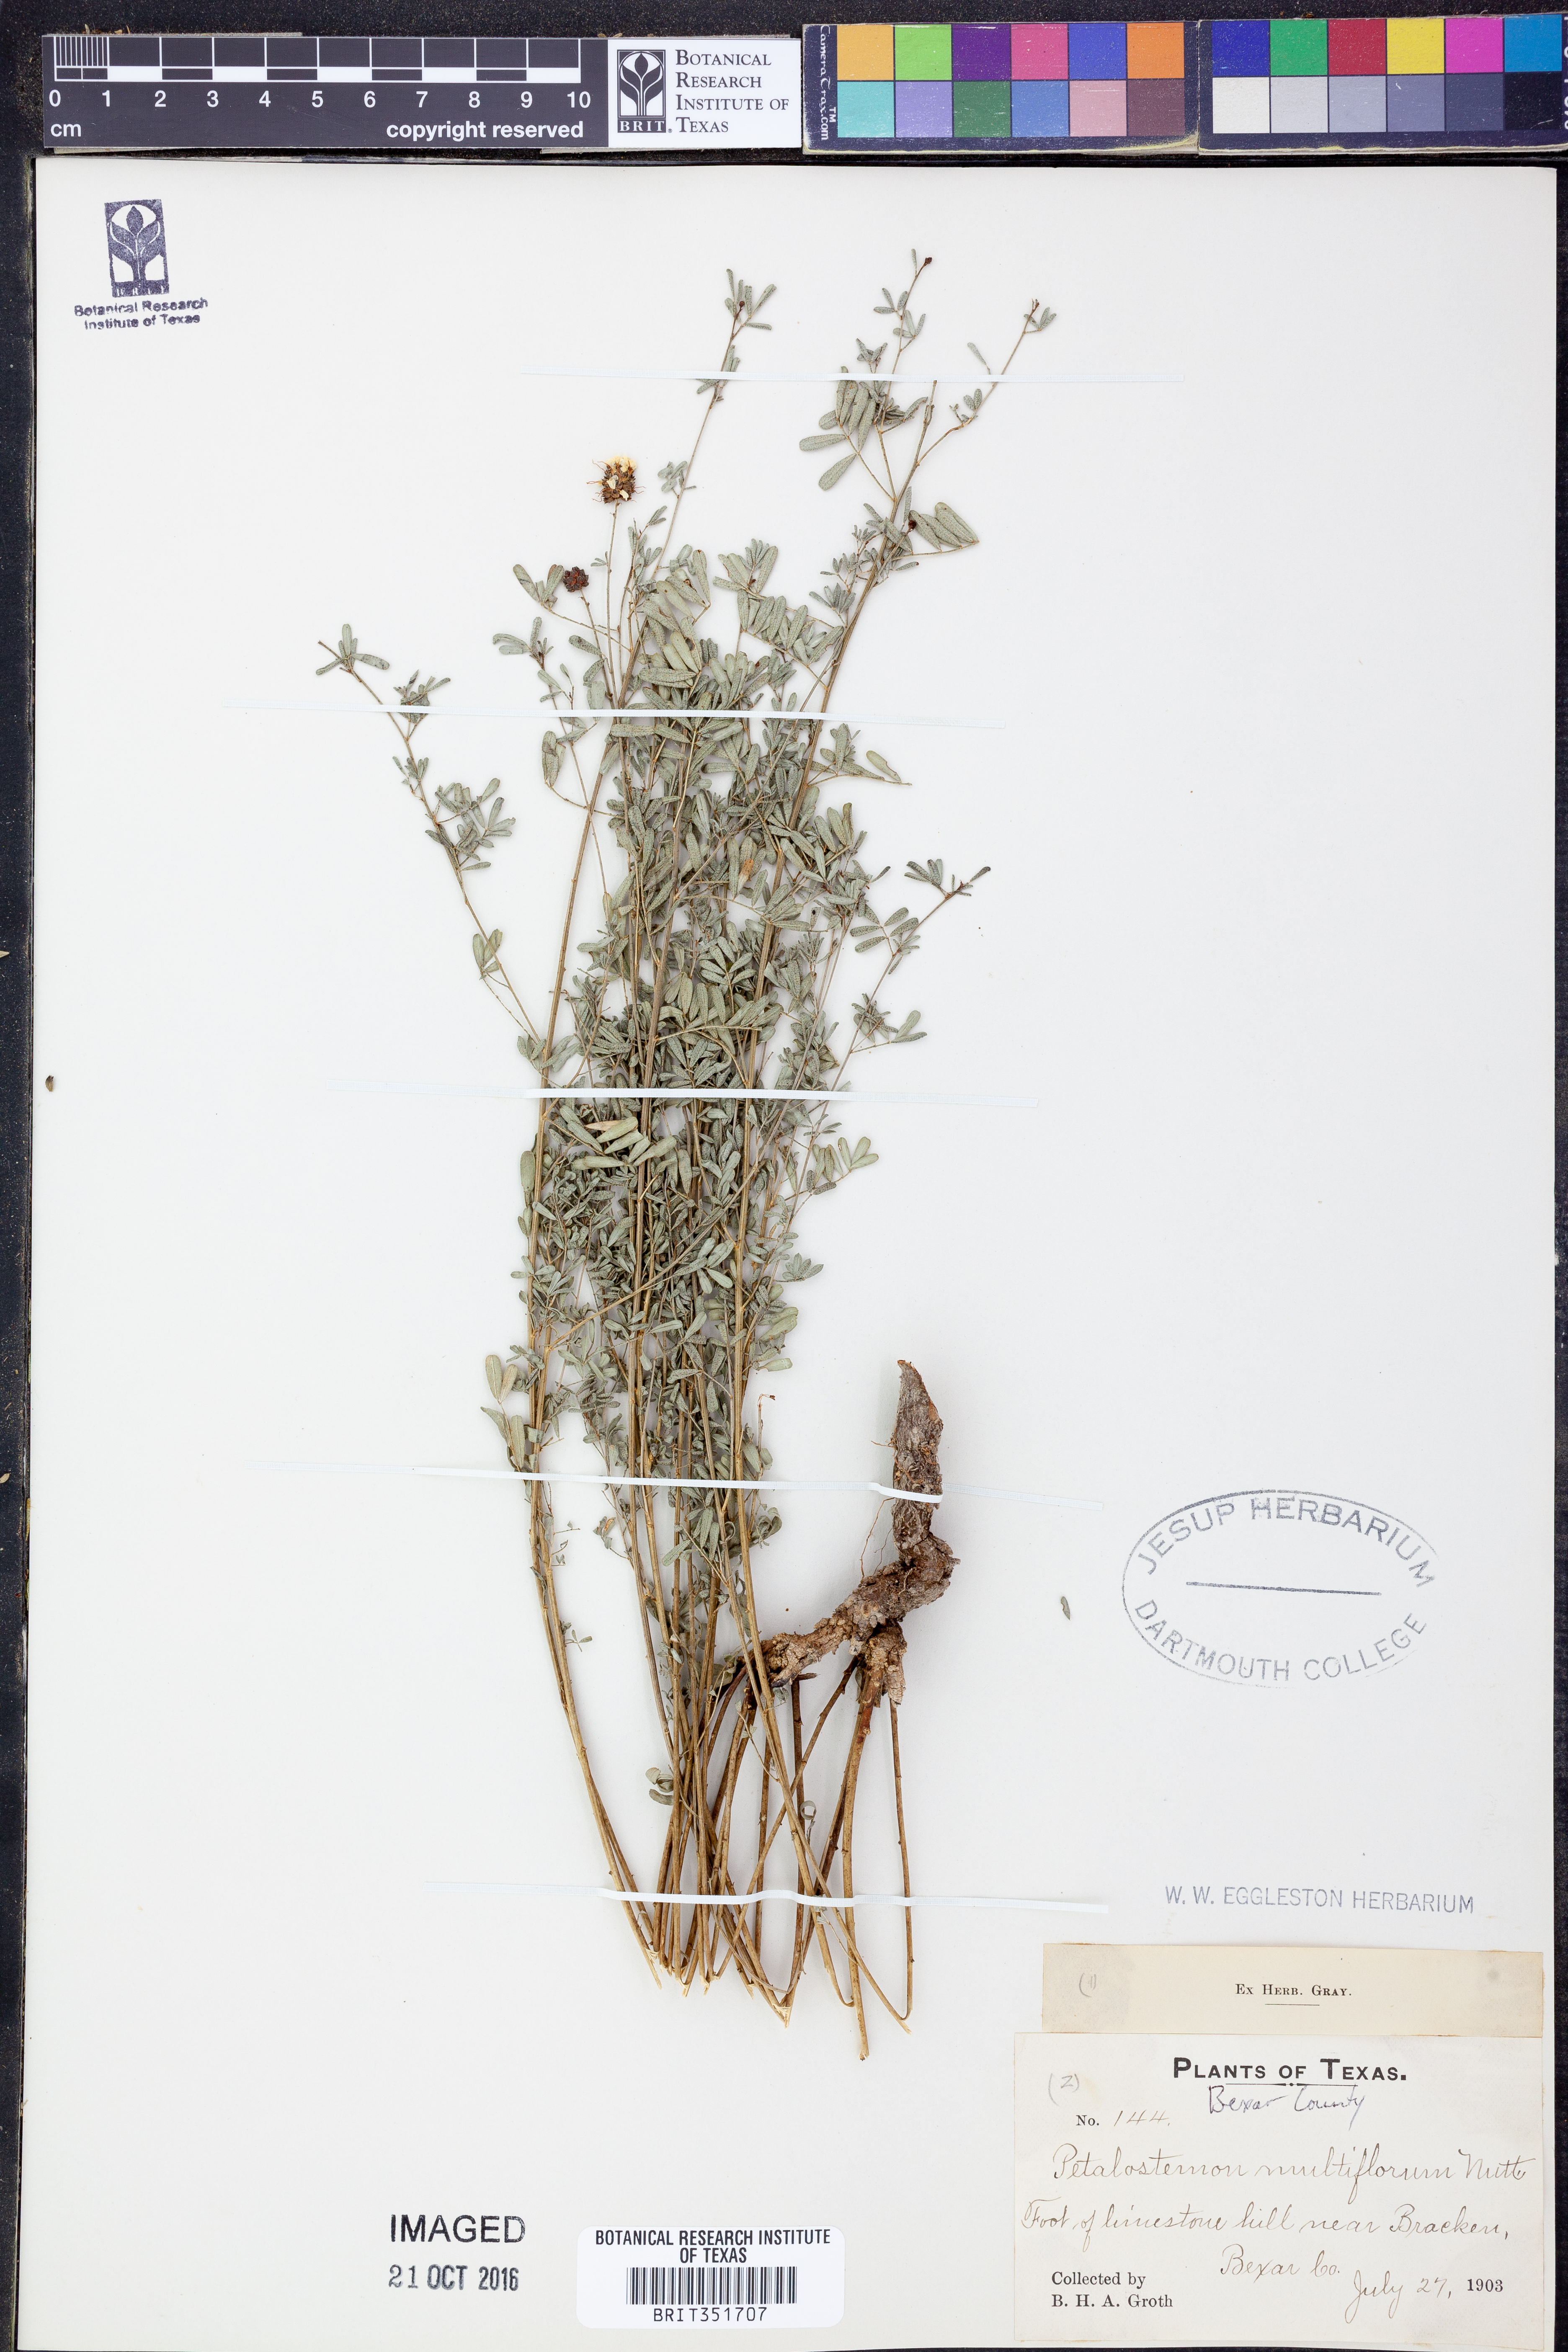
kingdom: Plantae
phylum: Tracheophyta
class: Magnoliopsida
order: Fabales
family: Fabaceae
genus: Dalea
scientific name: Dalea multiflora
